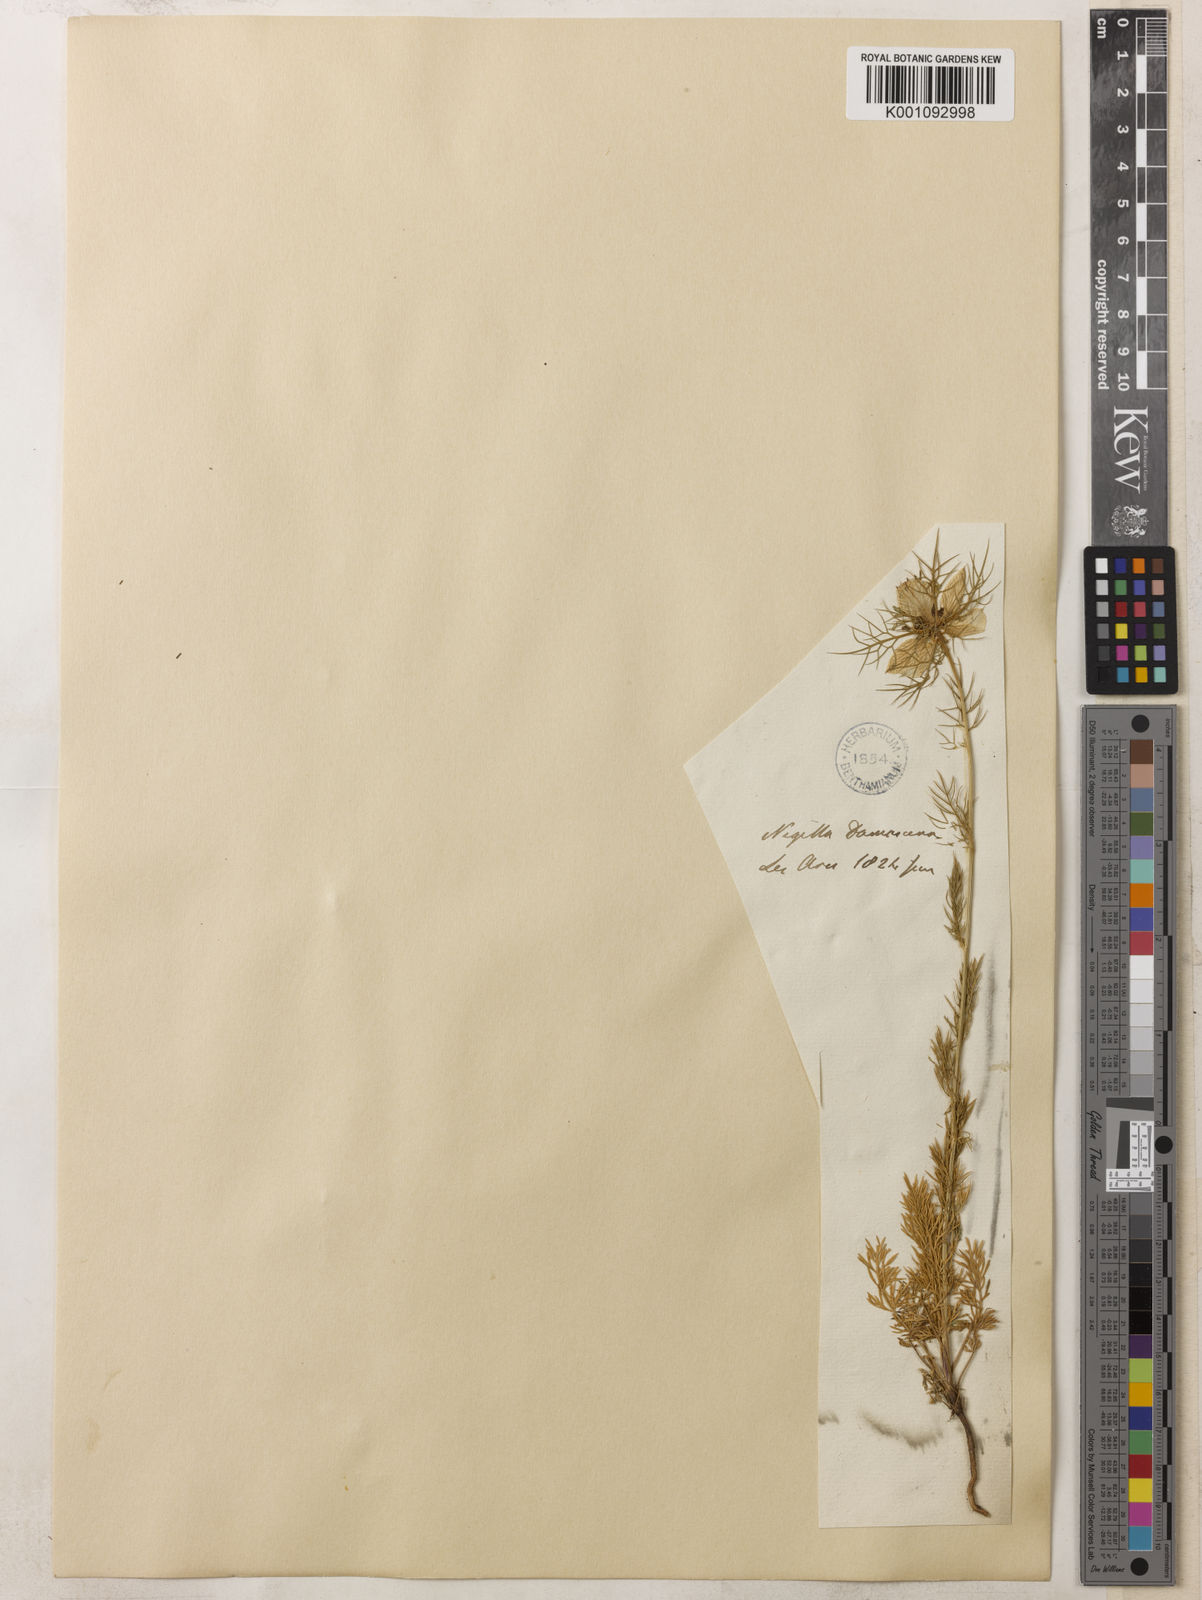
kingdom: Plantae
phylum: Tracheophyta
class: Magnoliopsida
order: Ranunculales
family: Ranunculaceae
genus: Nigella
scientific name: Nigella damascena
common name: Love-in-a-mist
